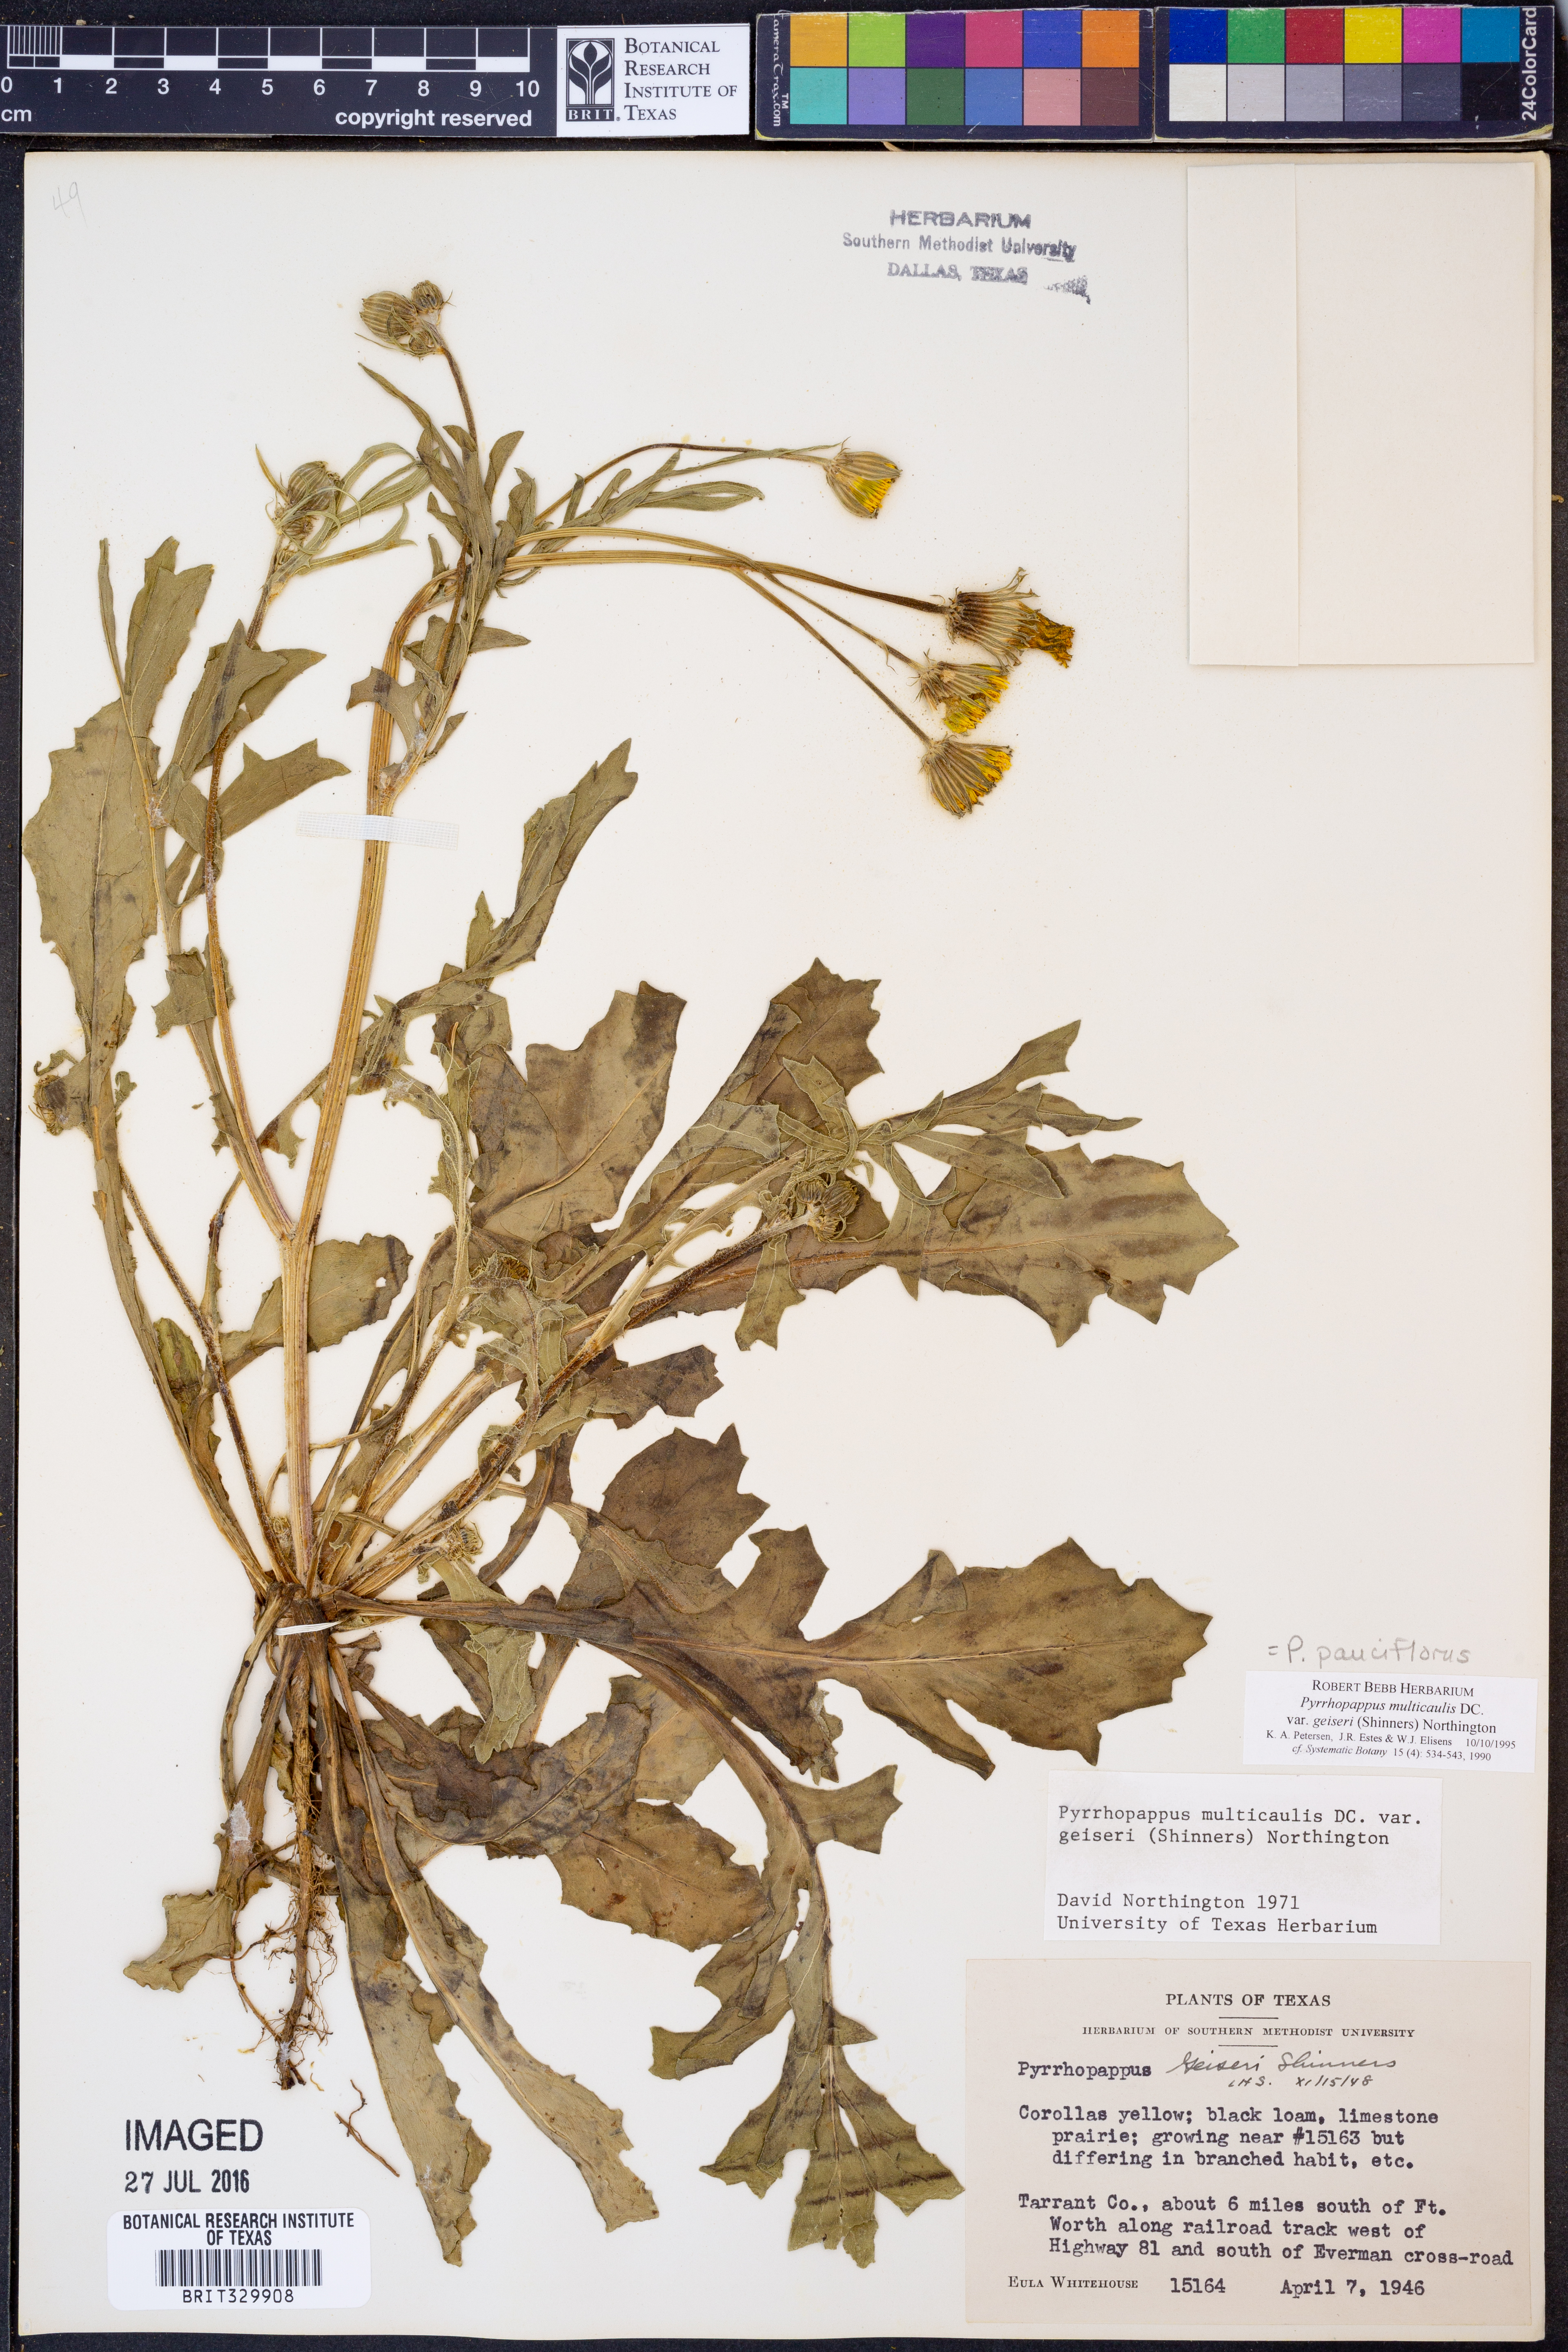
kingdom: Plantae
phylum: Tracheophyta
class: Magnoliopsida
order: Asterales
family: Asteraceae
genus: Pyrrhopappus
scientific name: Pyrrhopappus pauciflorus
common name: Texas false dandelion
